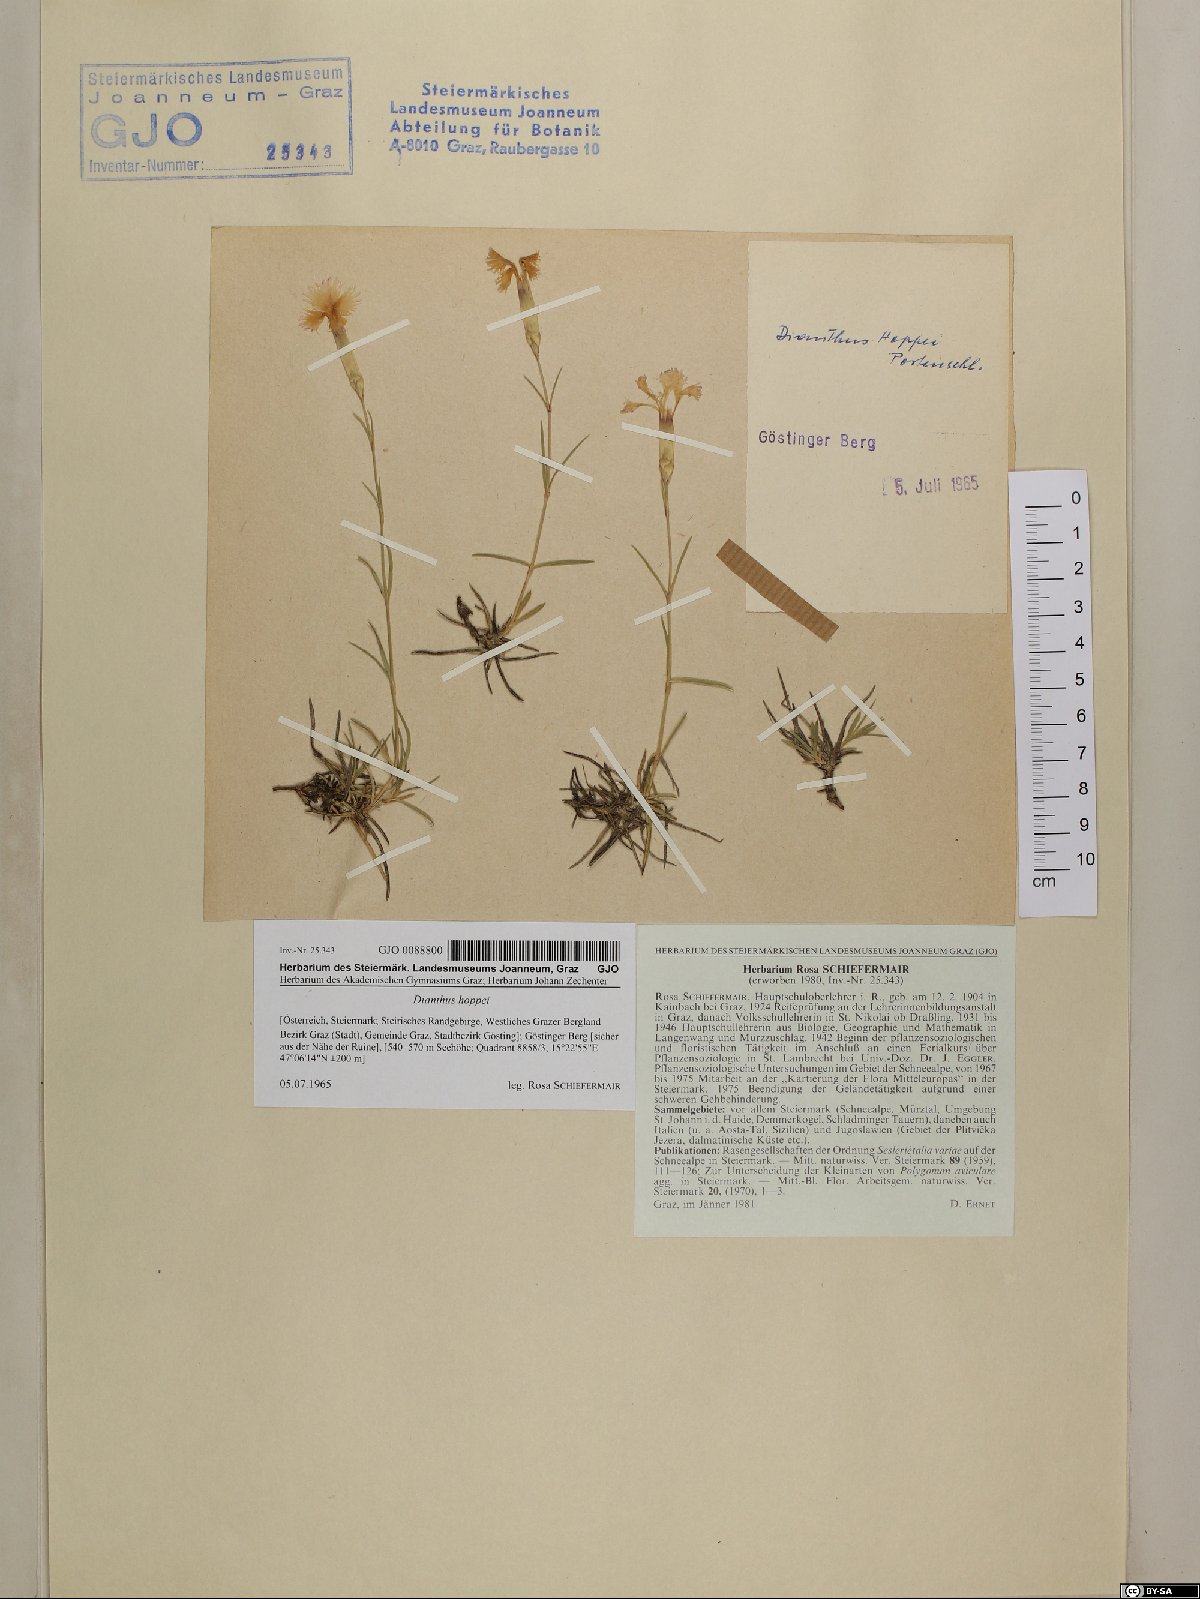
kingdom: Plantae
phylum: Tracheophyta
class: Magnoliopsida
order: Caryophyllales
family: Caryophyllaceae
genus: Dianthus
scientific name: Dianthus plumarius
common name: Pink
